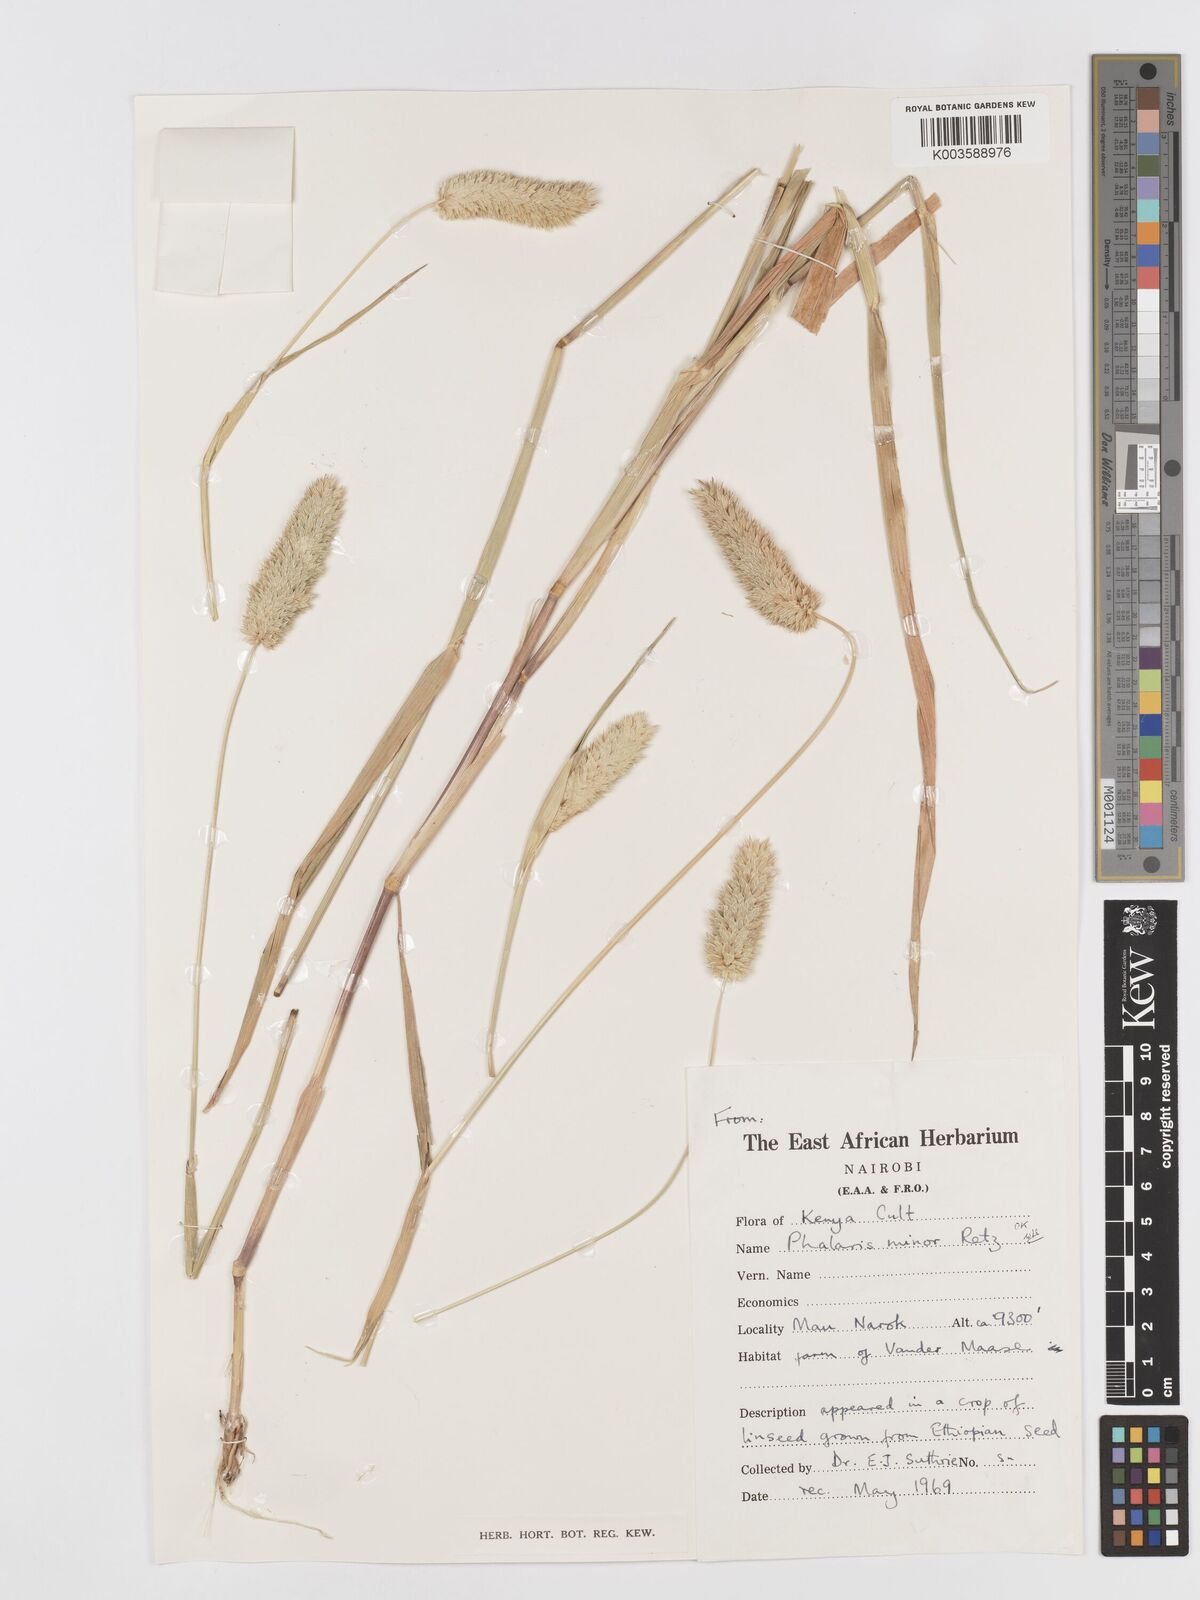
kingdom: Plantae
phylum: Tracheophyta
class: Liliopsida
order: Poales
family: Poaceae
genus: Phalaris
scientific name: Phalaris minor
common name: Littleseed canarygrass
